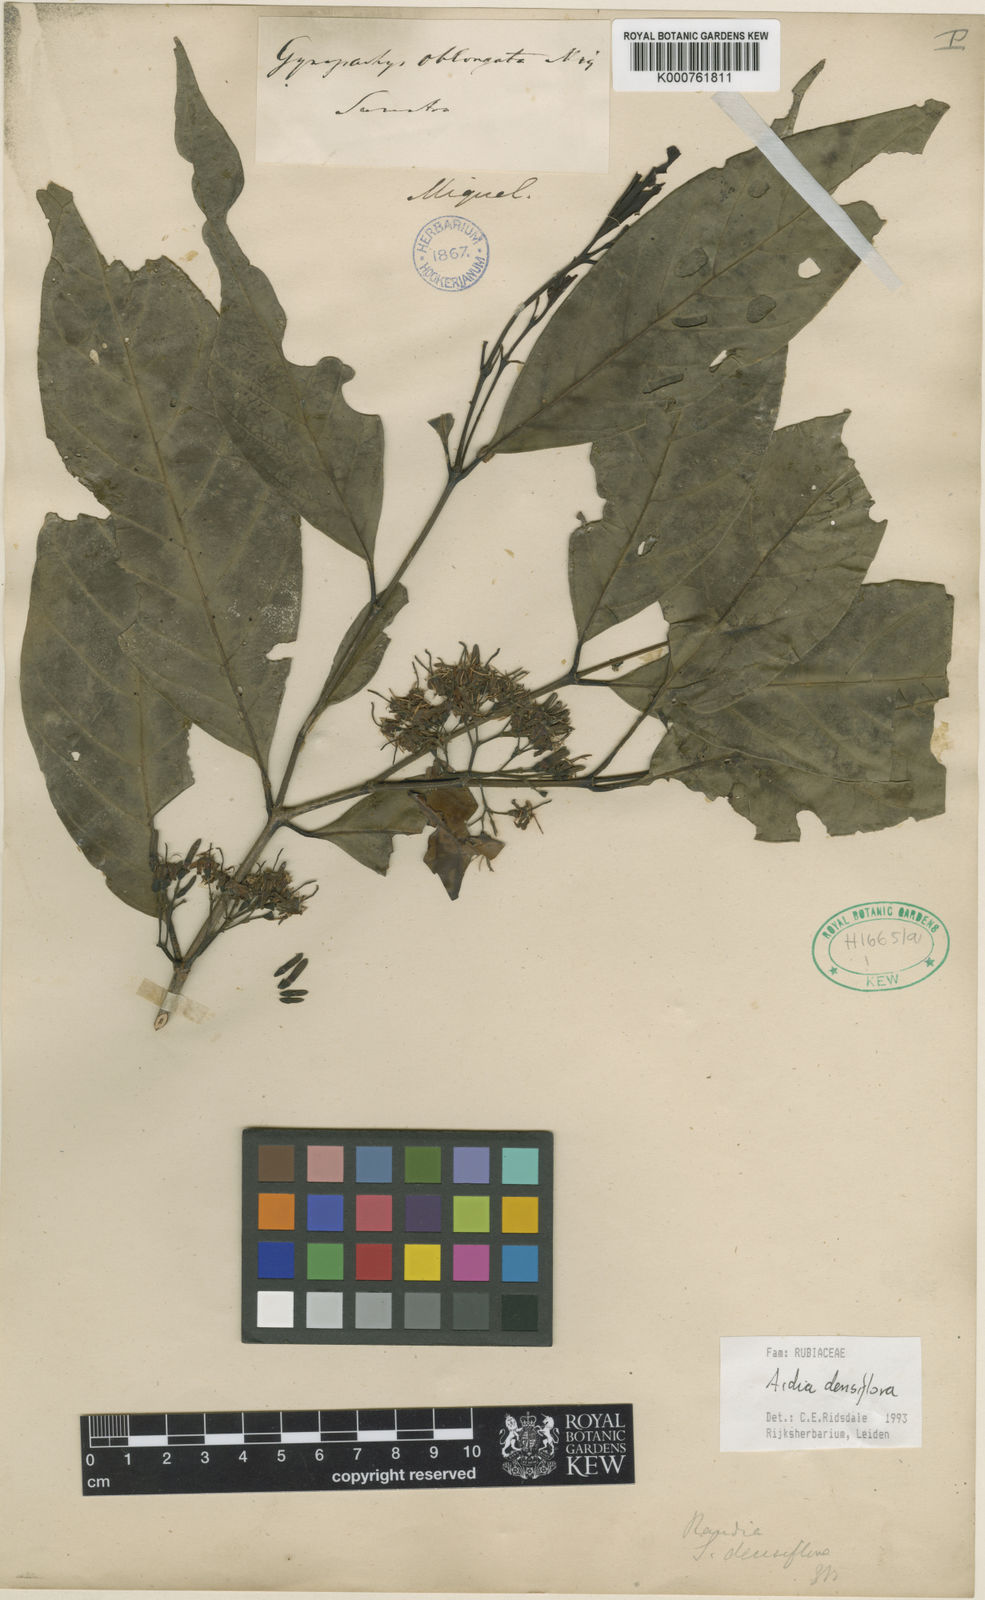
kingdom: Plantae
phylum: Tracheophyta
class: Magnoliopsida
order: Gentianales
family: Rubiaceae
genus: Aidia
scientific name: Aidia densiflora
